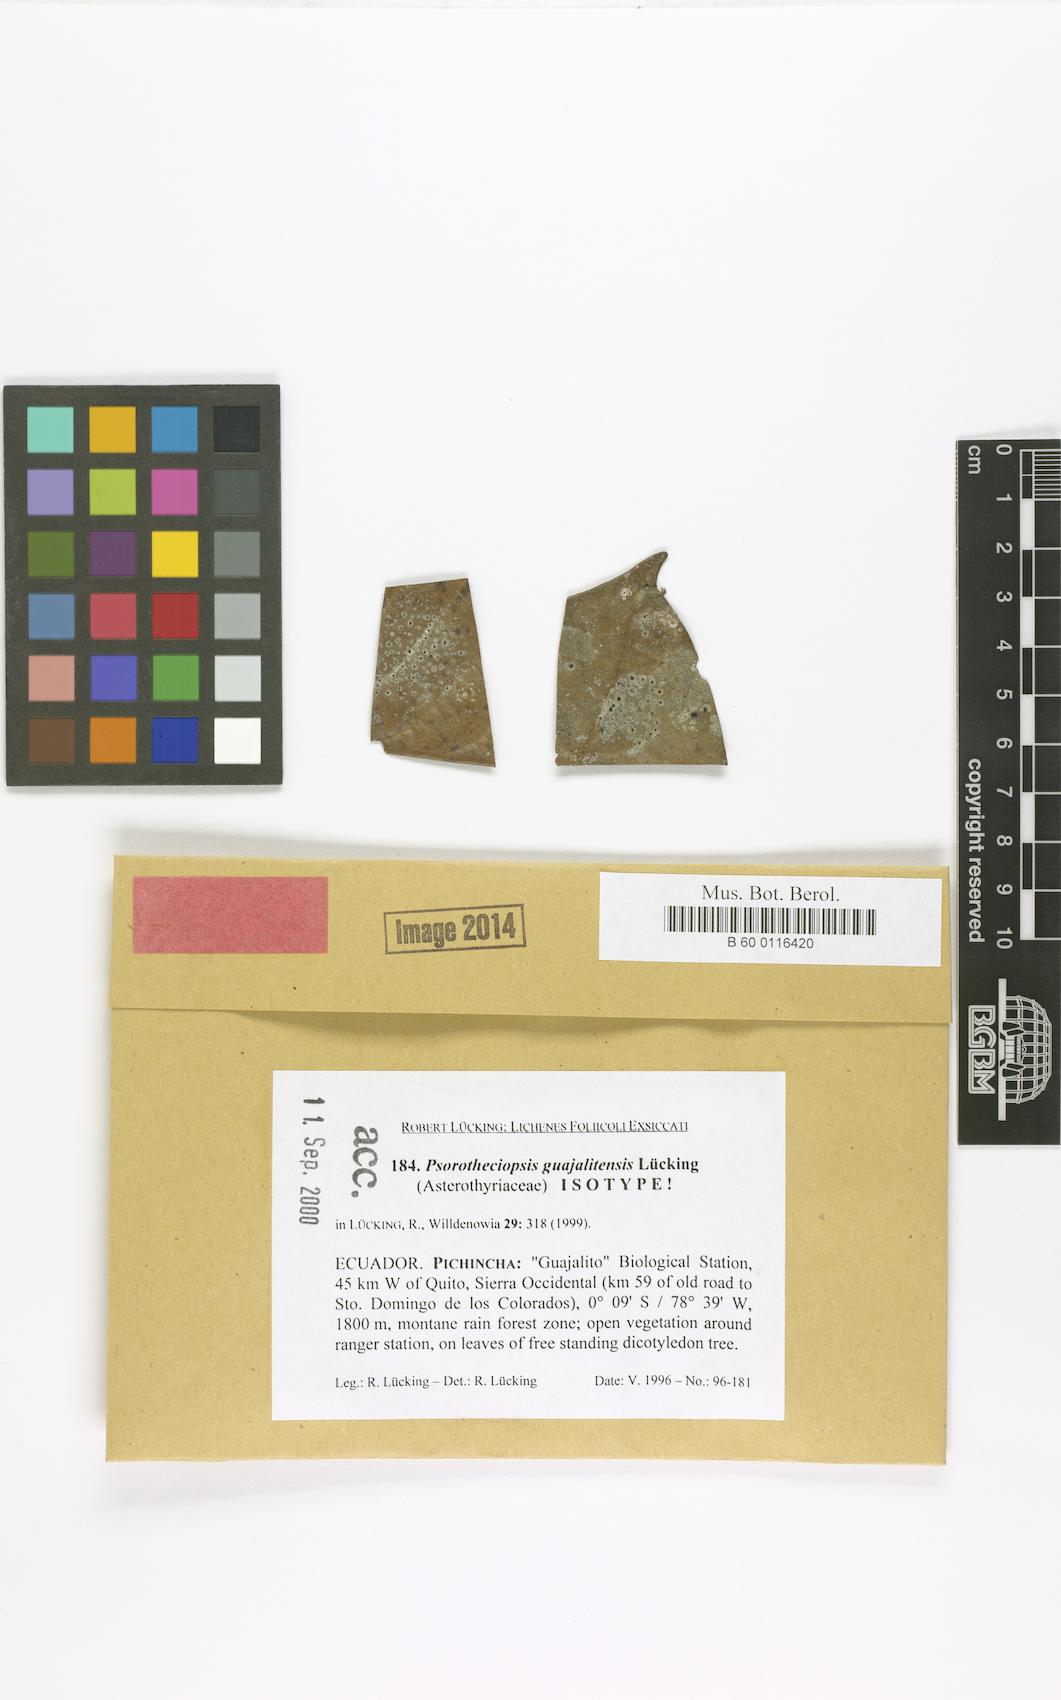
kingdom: Fungi
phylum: Ascomycota
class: Lecanoromycetes
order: Ostropales
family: Gomphillaceae
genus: Psorotheciopsis
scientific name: Psorotheciopsis
